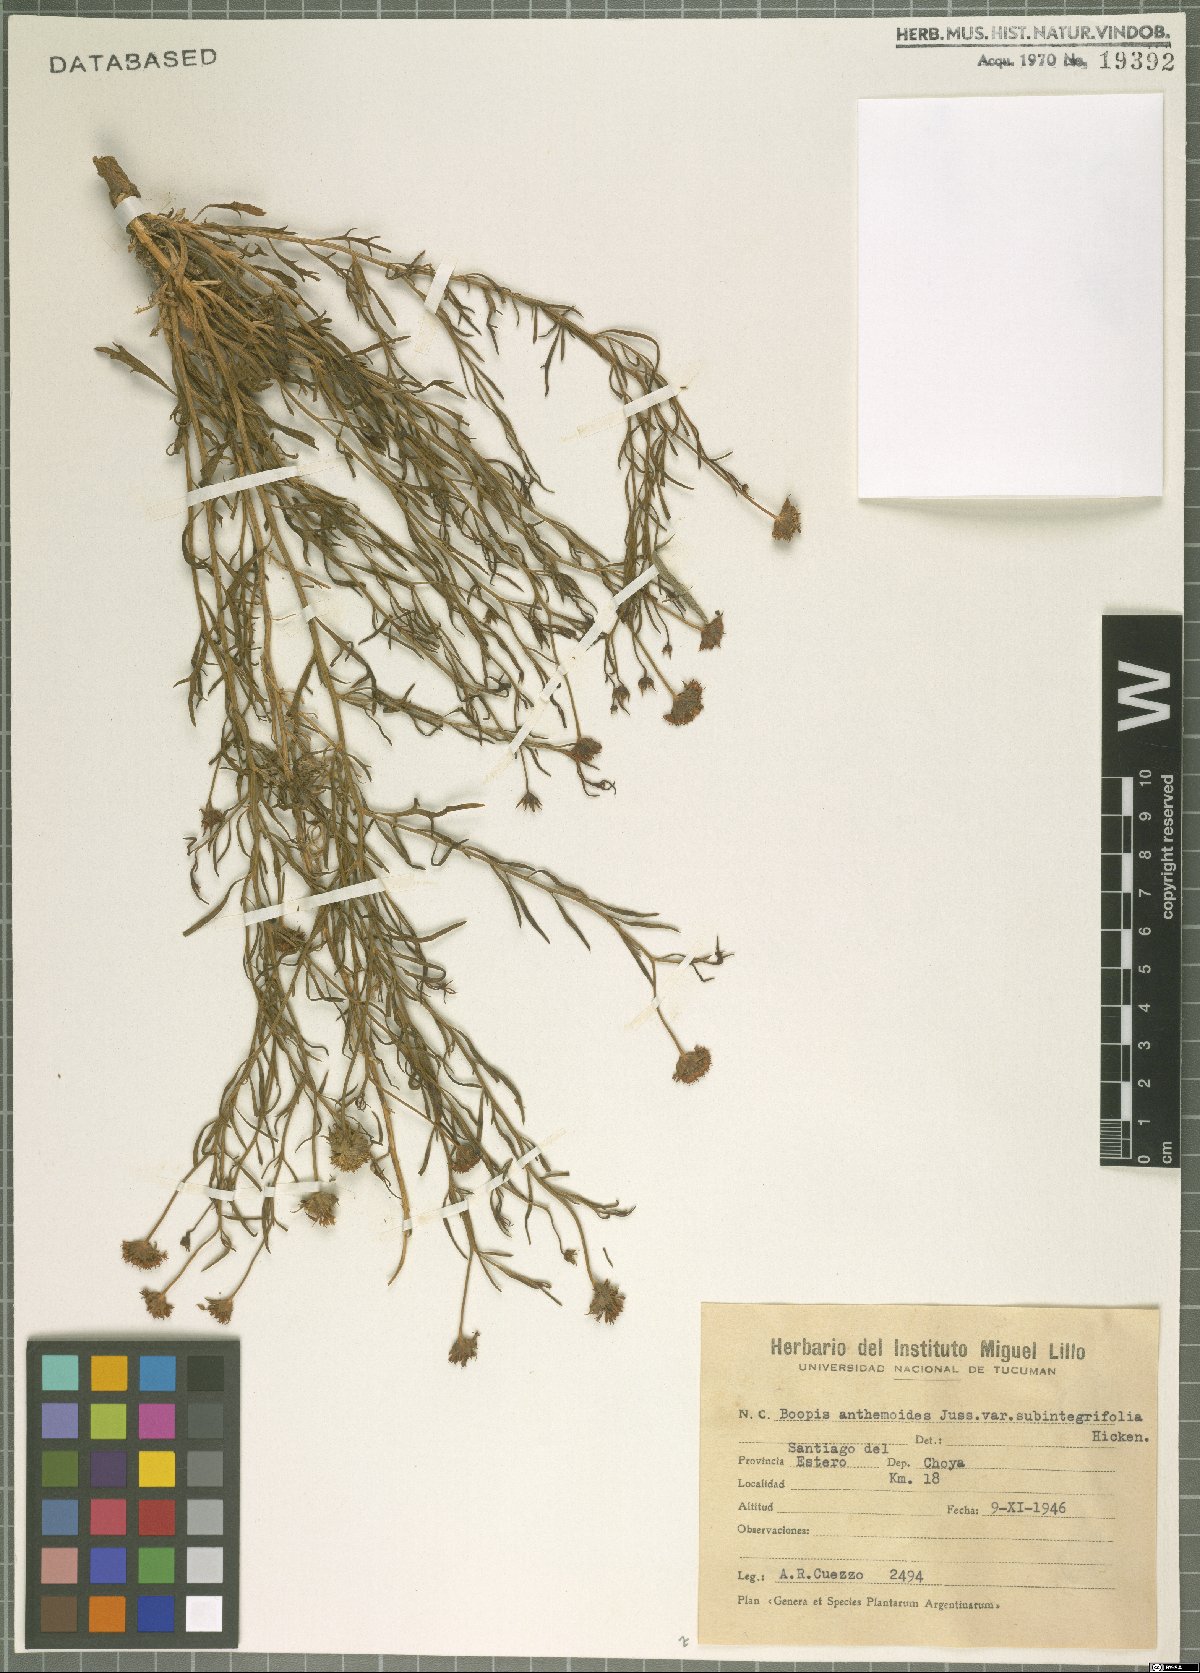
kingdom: Plantae
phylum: Tracheophyta
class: Magnoliopsida
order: Asterales
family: Calyceraceae
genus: Boopis
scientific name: Boopis anthemoides
